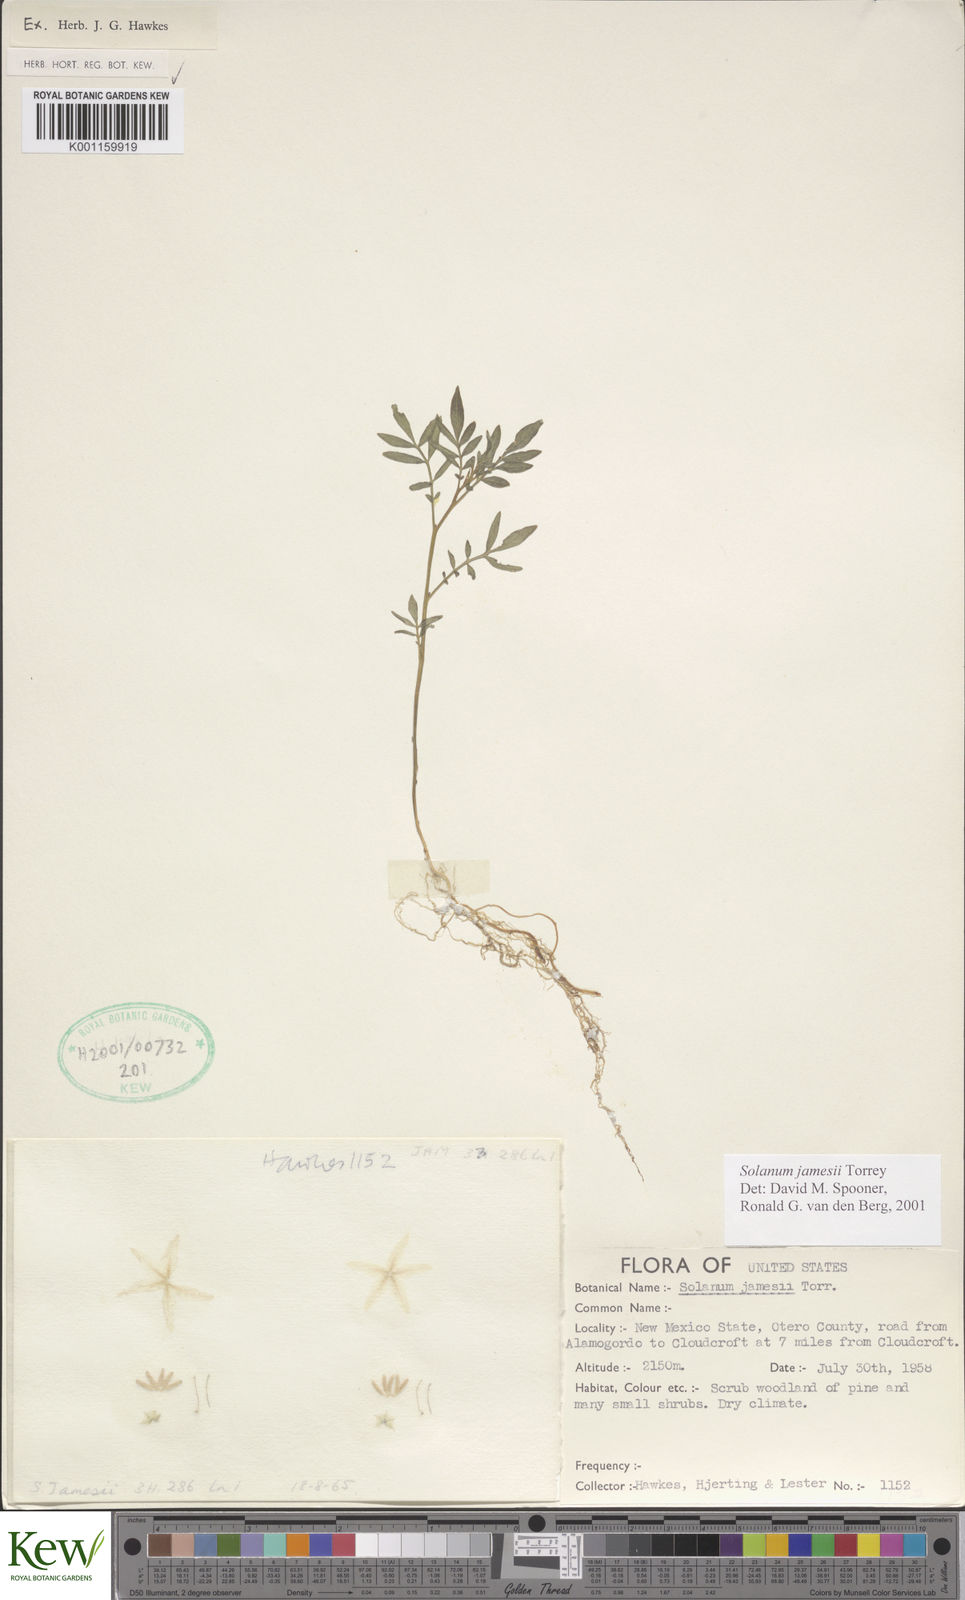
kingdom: Plantae
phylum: Tracheophyta
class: Magnoliopsida
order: Solanales
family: Solanaceae
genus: Solanum
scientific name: Solanum jamesii
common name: Wild potato
